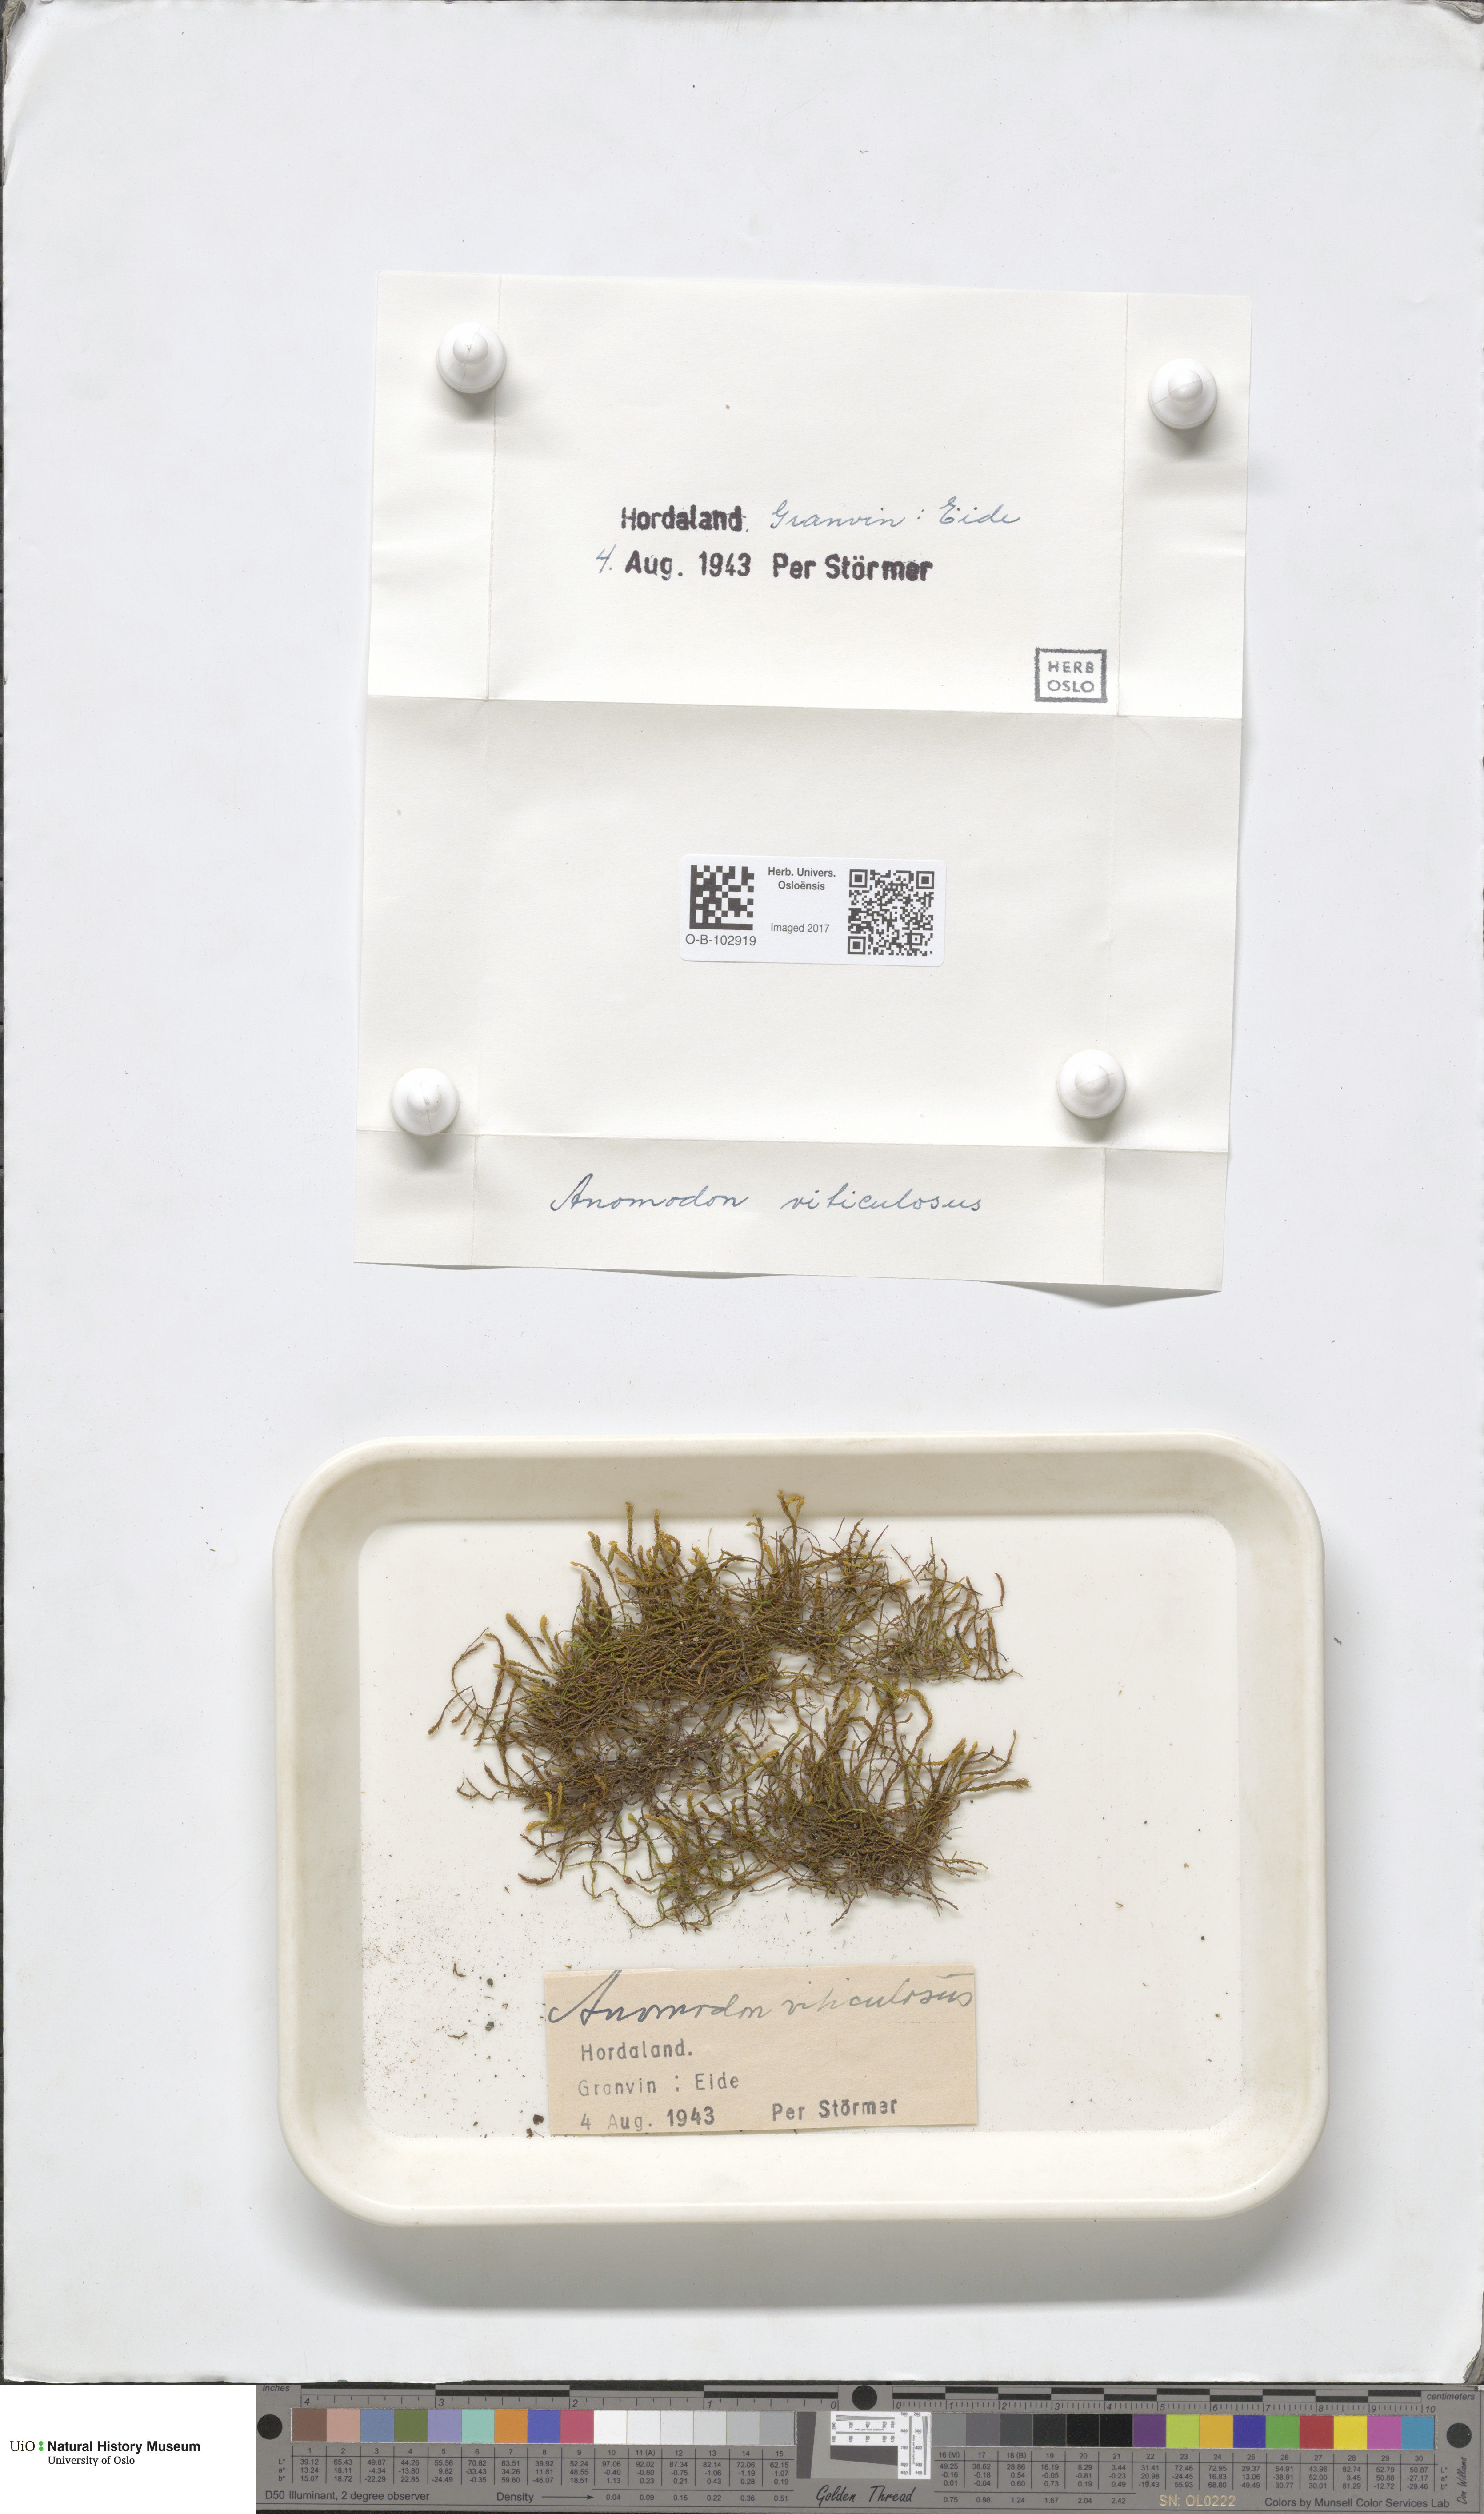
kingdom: Plantae
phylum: Bryophyta
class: Bryopsida
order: Hypnales
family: Anomodontaceae
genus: Anomodon
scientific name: Anomodon viticulosus
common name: Tall anomodon
